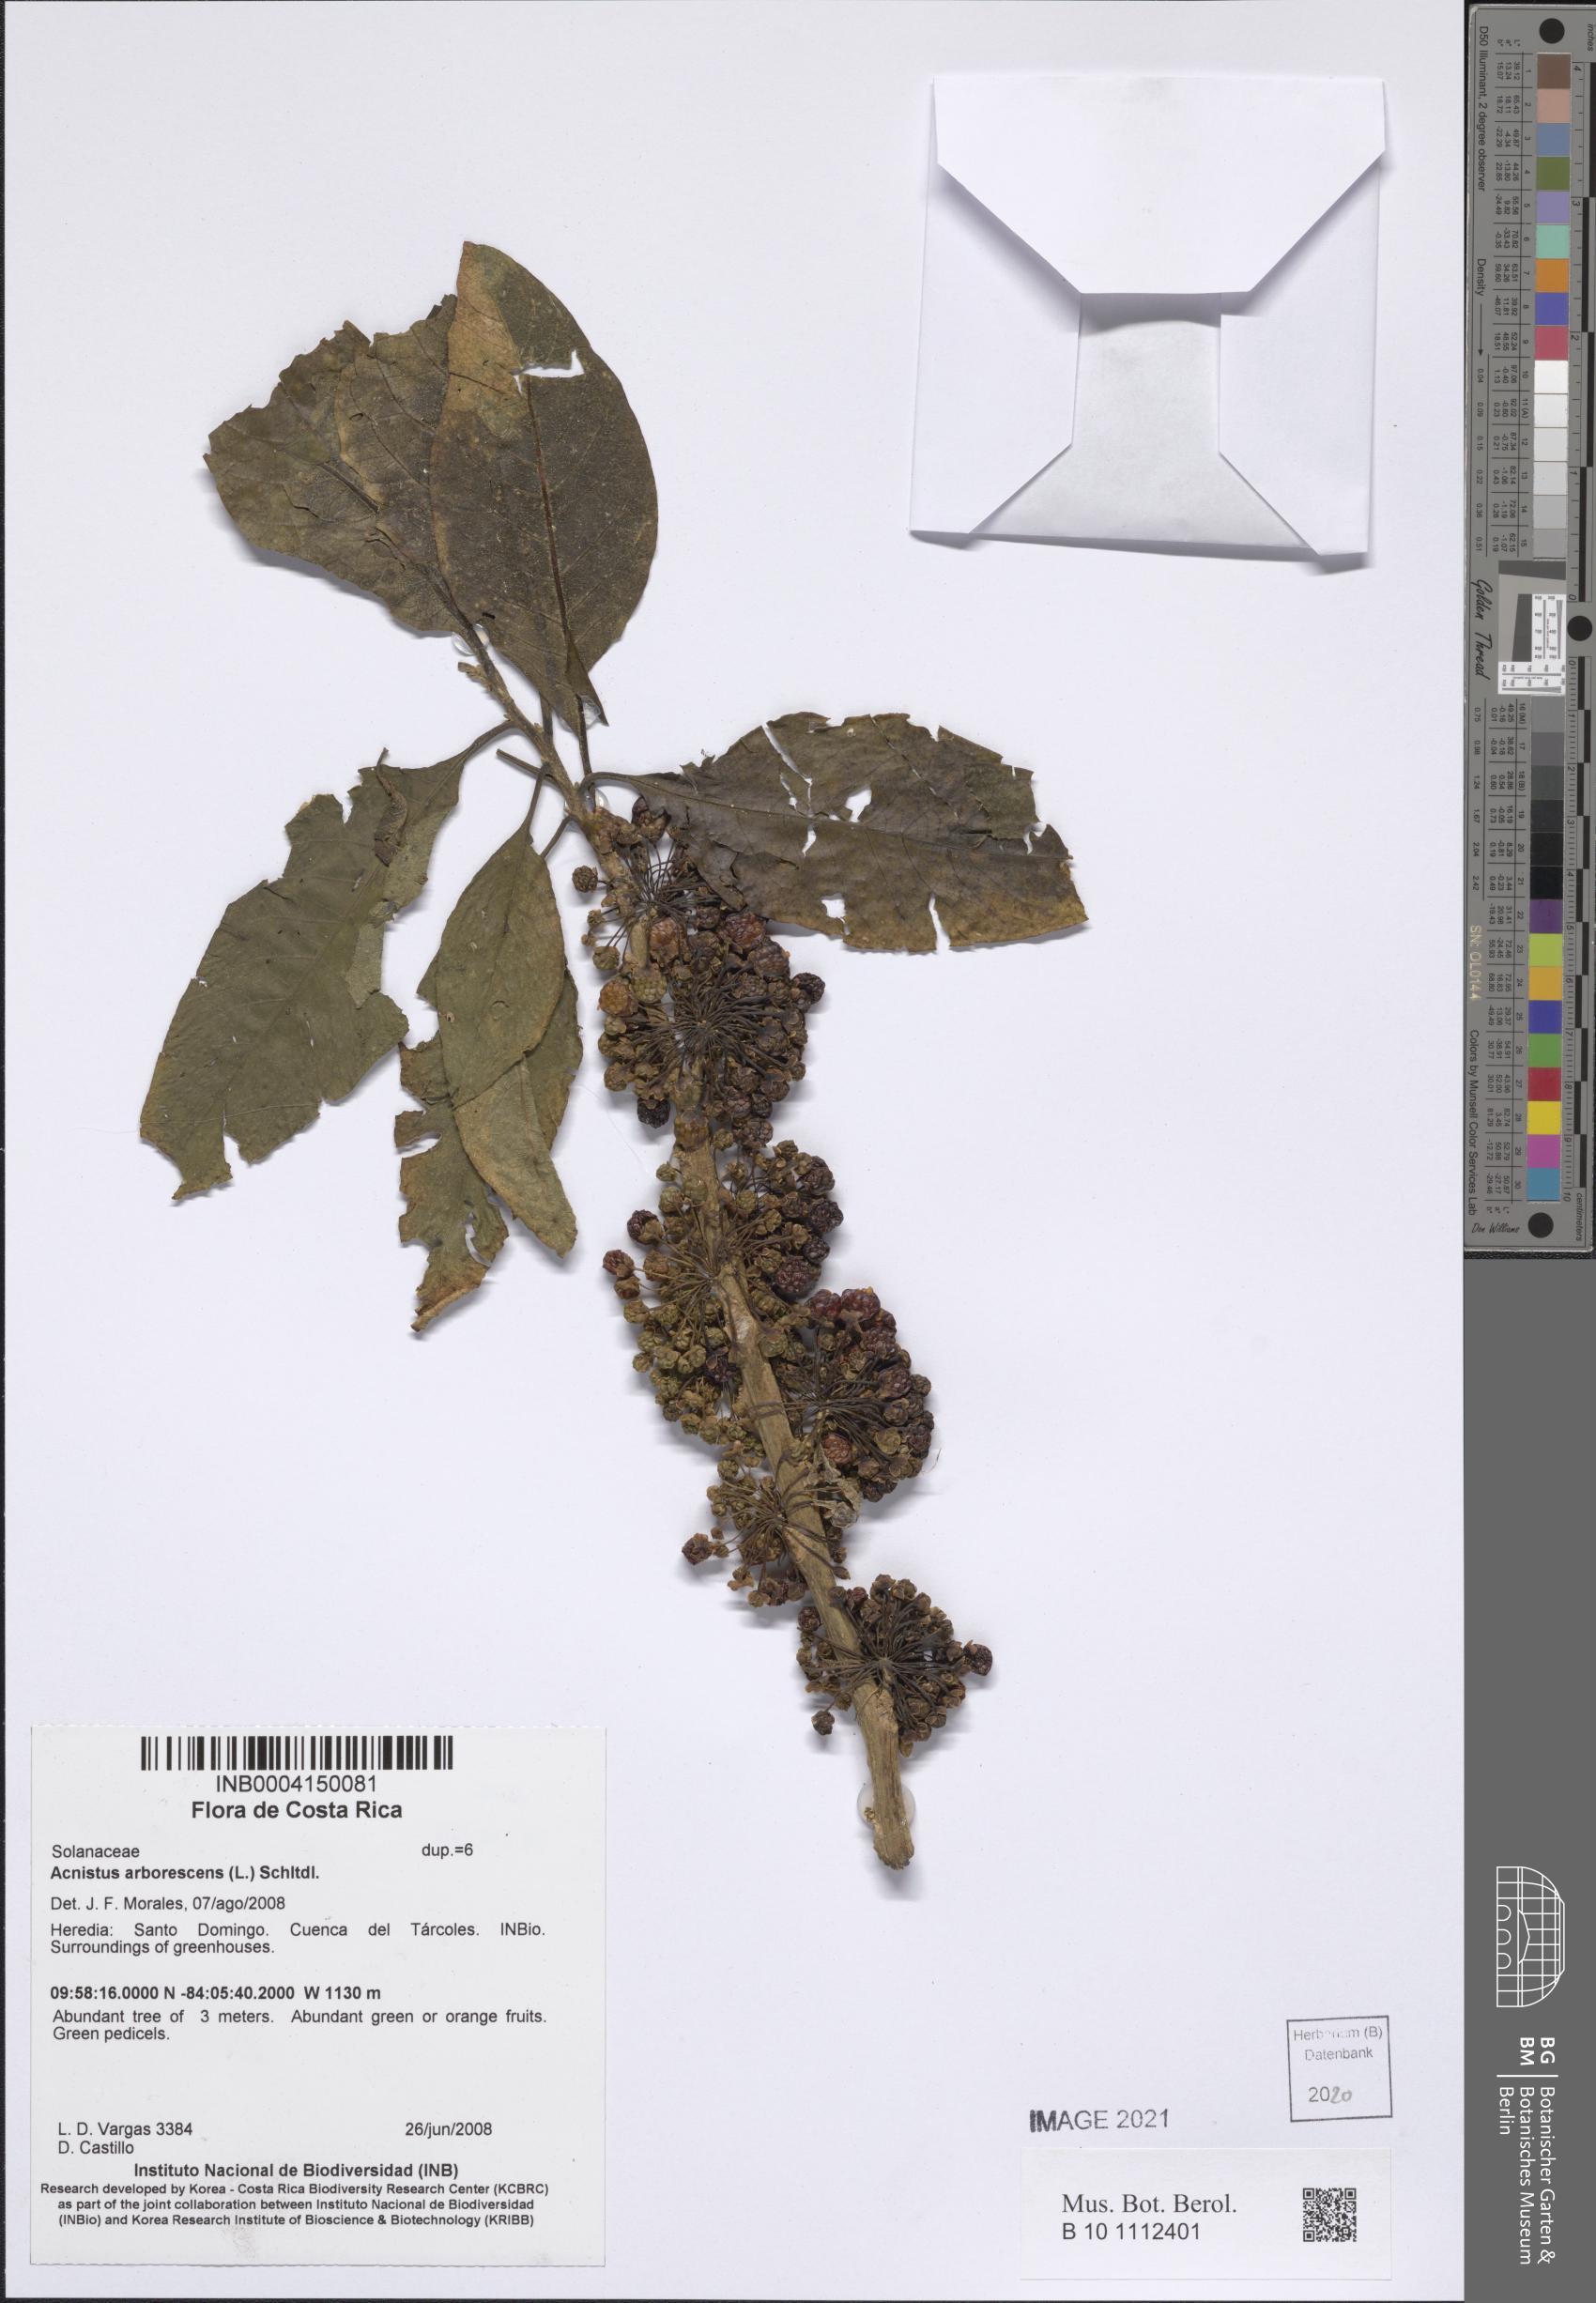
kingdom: Plantae
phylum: Tracheophyta
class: Magnoliopsida
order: Solanales
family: Solanaceae
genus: Iochroma
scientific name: Iochroma arborescens
